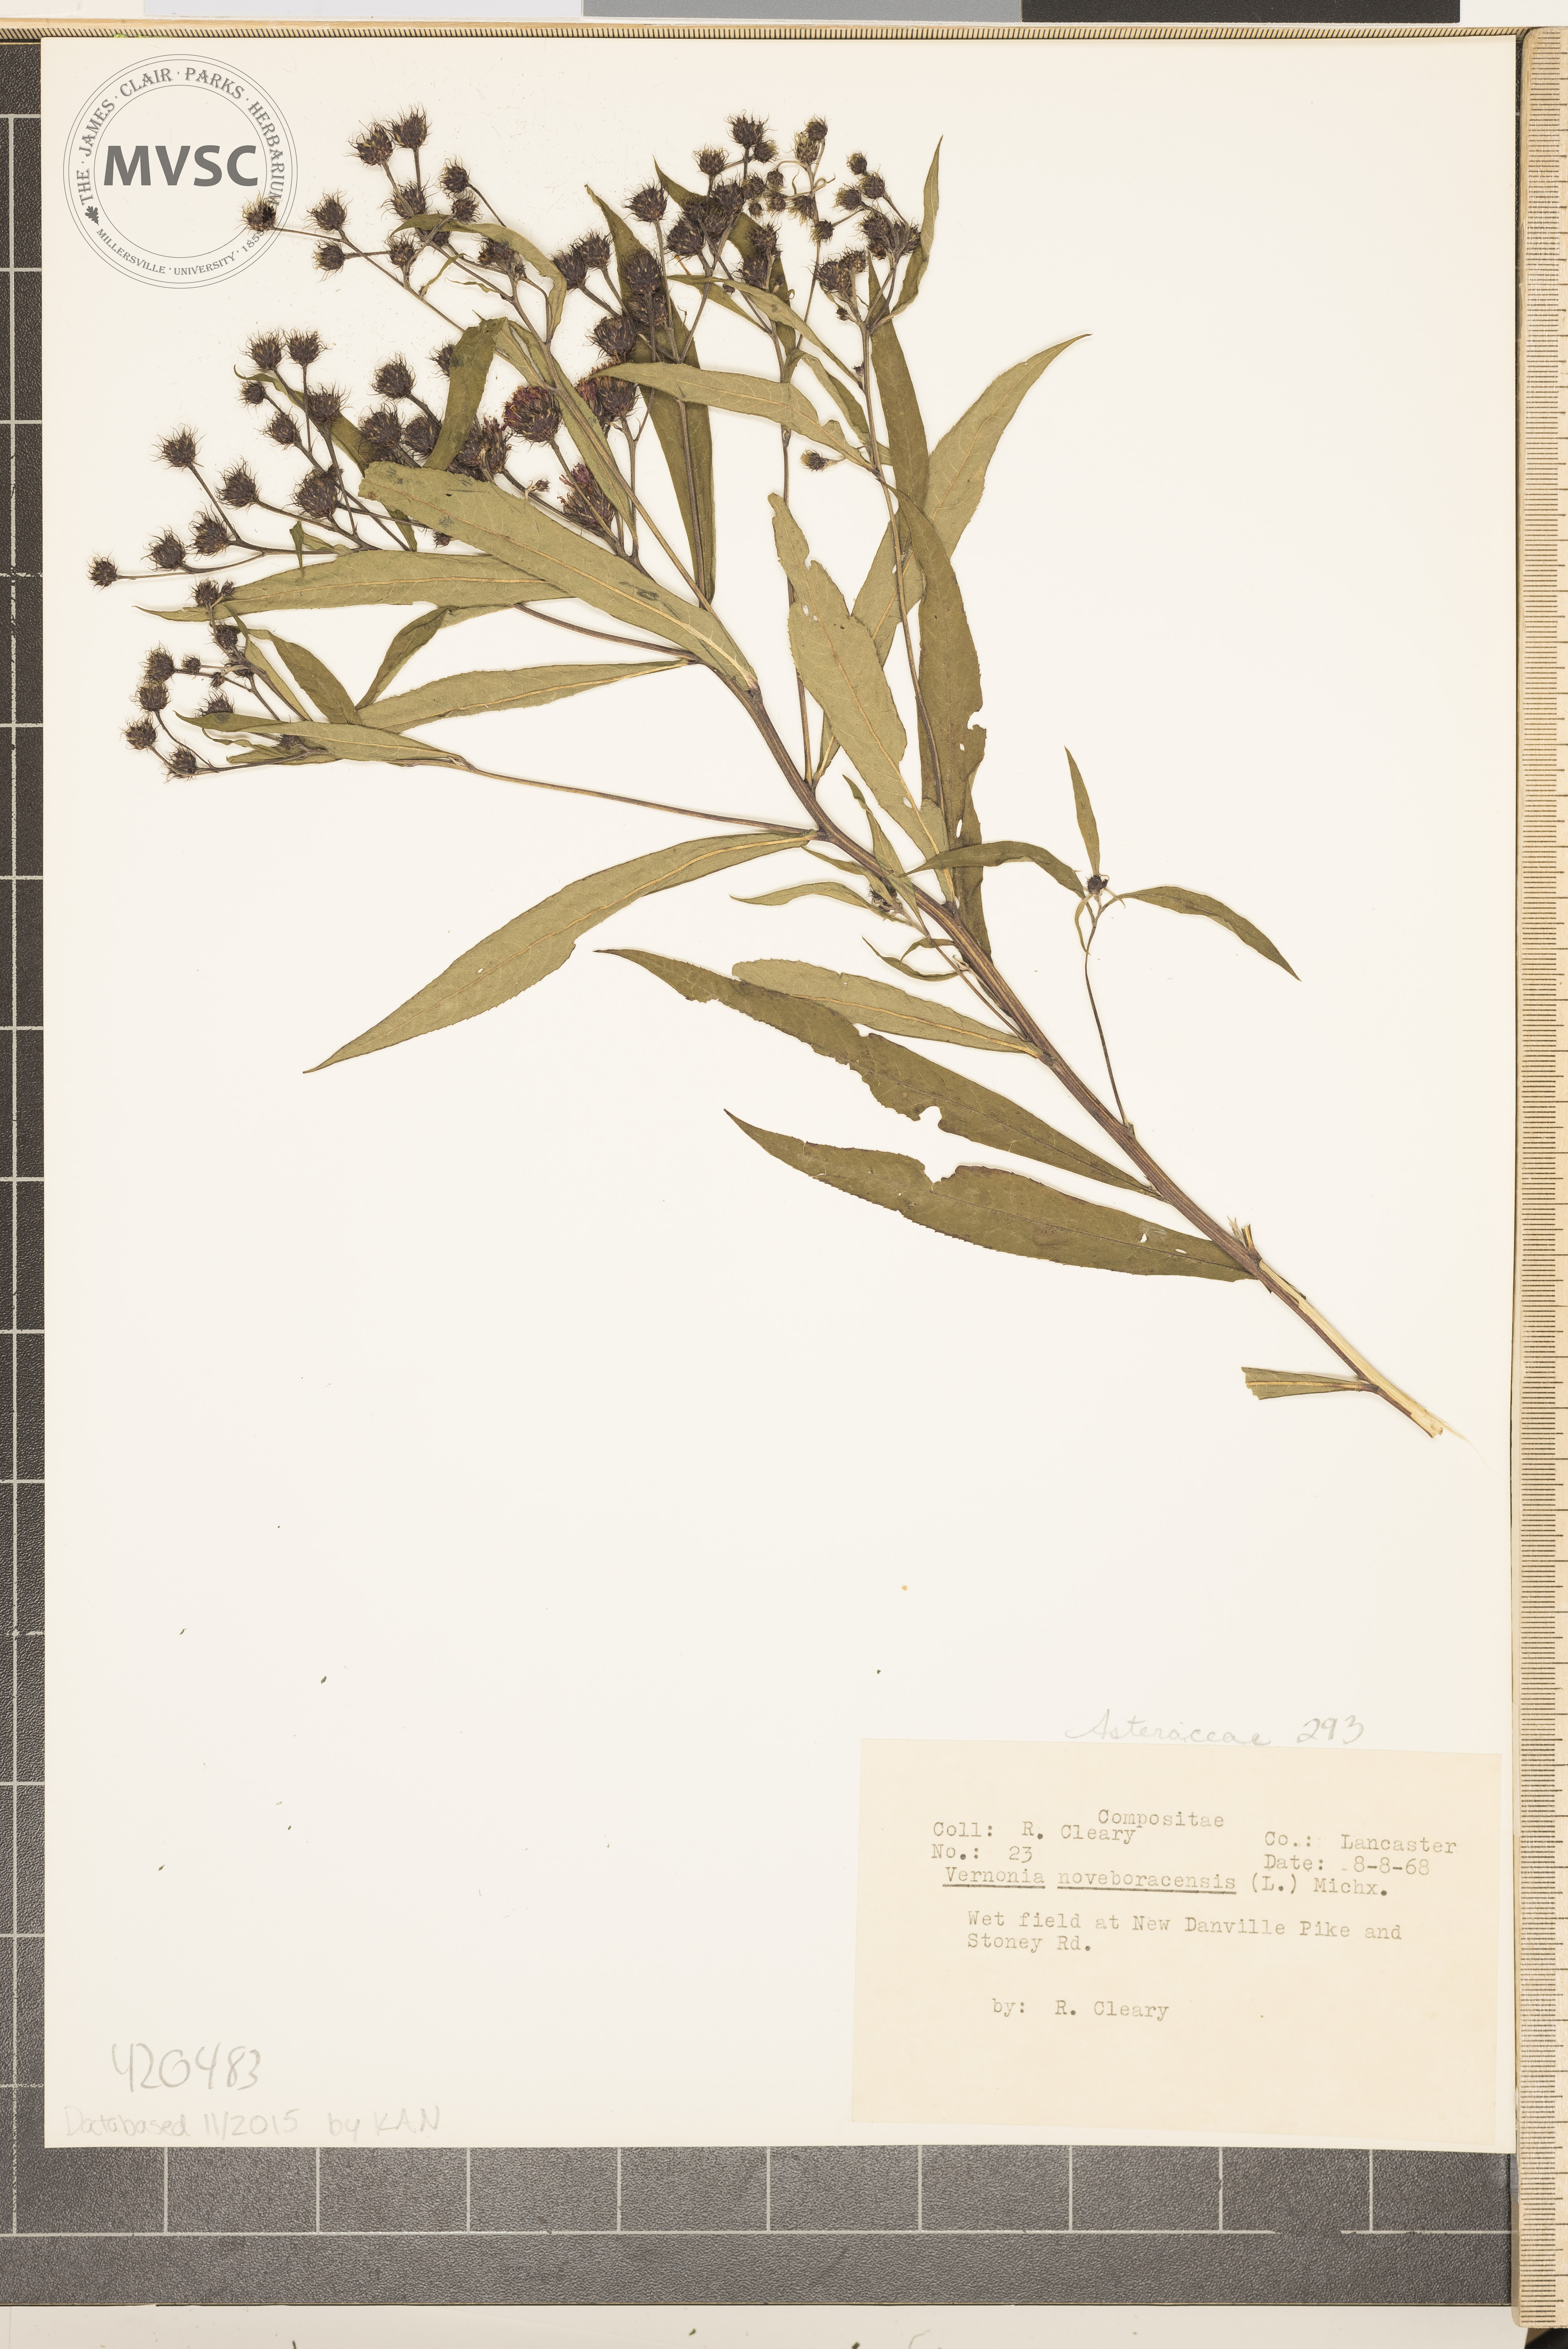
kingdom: Plantae
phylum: Tracheophyta
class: Magnoliopsida
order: Asterales
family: Asteraceae
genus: Vernonia
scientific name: Vernonia noveboracensis
